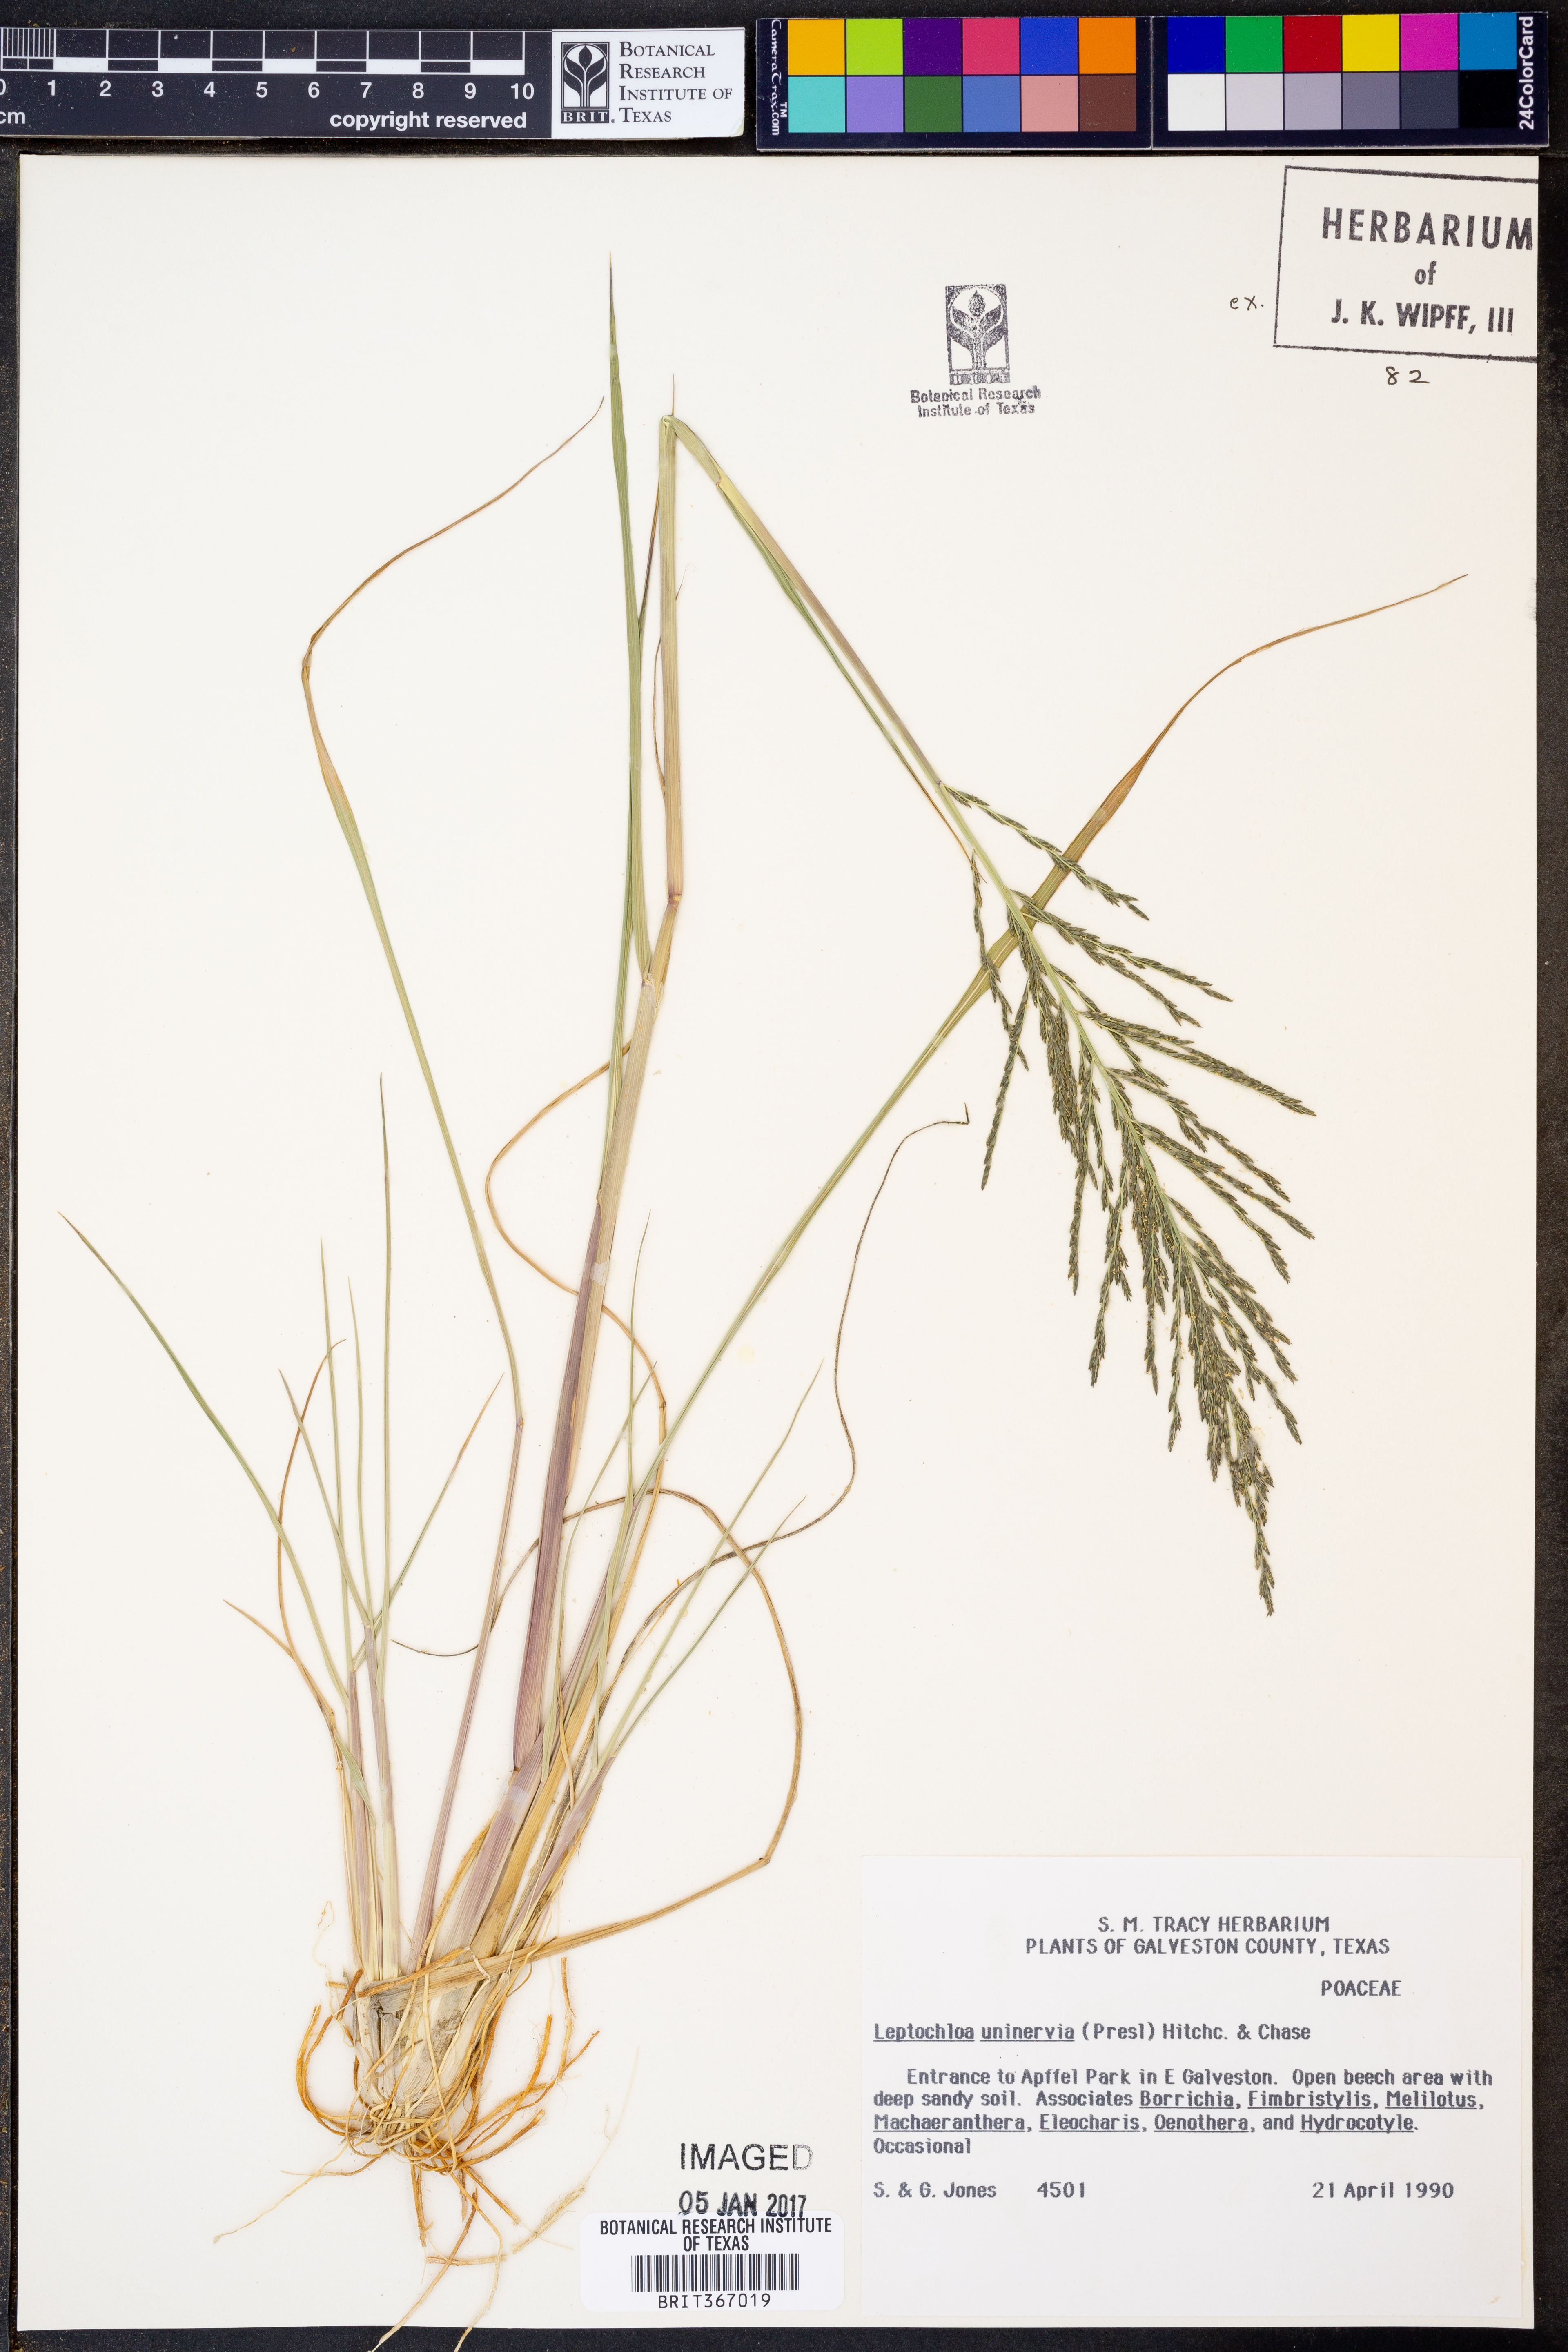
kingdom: Plantae
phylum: Tracheophyta
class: Liliopsida
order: Poales
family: Poaceae
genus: Diplachne
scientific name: Diplachne fusca
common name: Brown beetle grass
